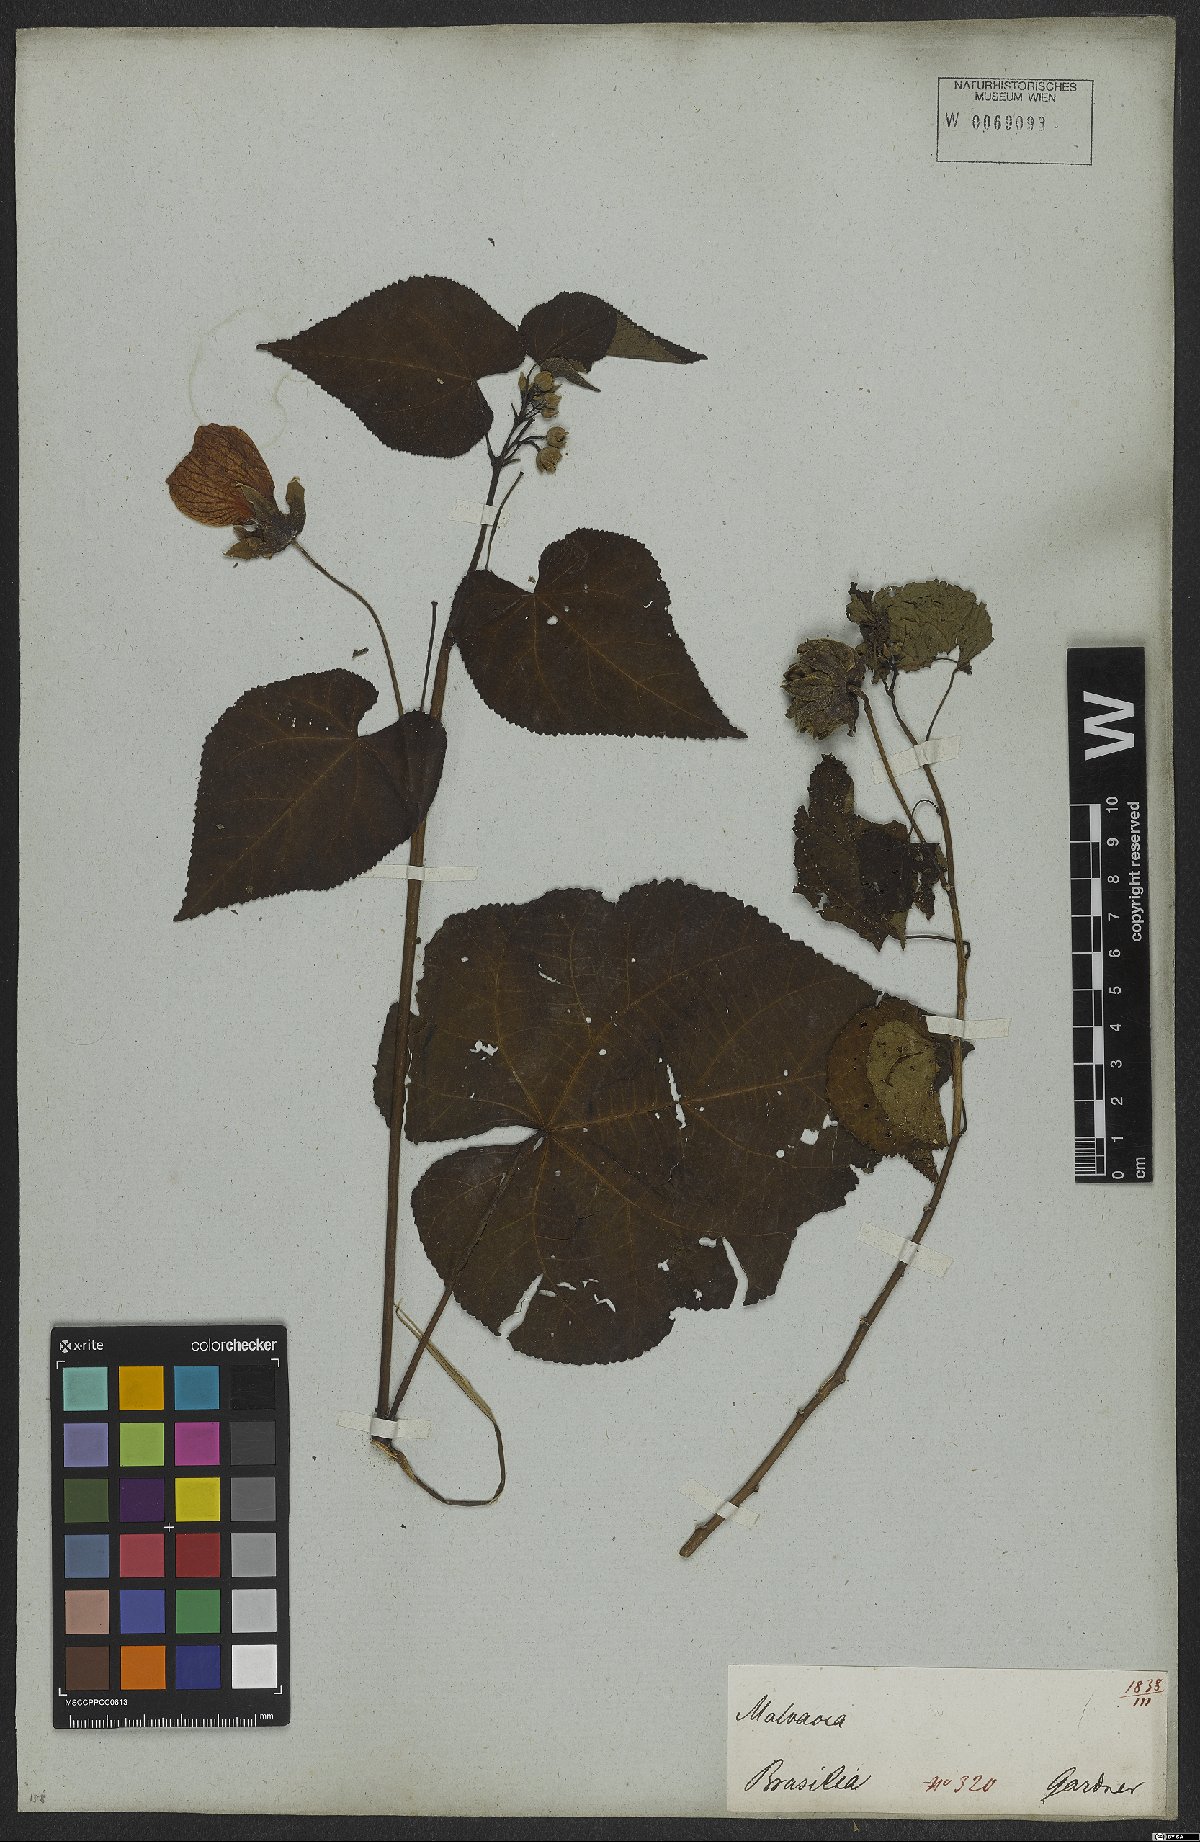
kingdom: Plantae
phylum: Tracheophyta
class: Magnoliopsida
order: Malvales
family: Malvaceae
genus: Callianthe
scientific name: Callianthe bedfordiana
